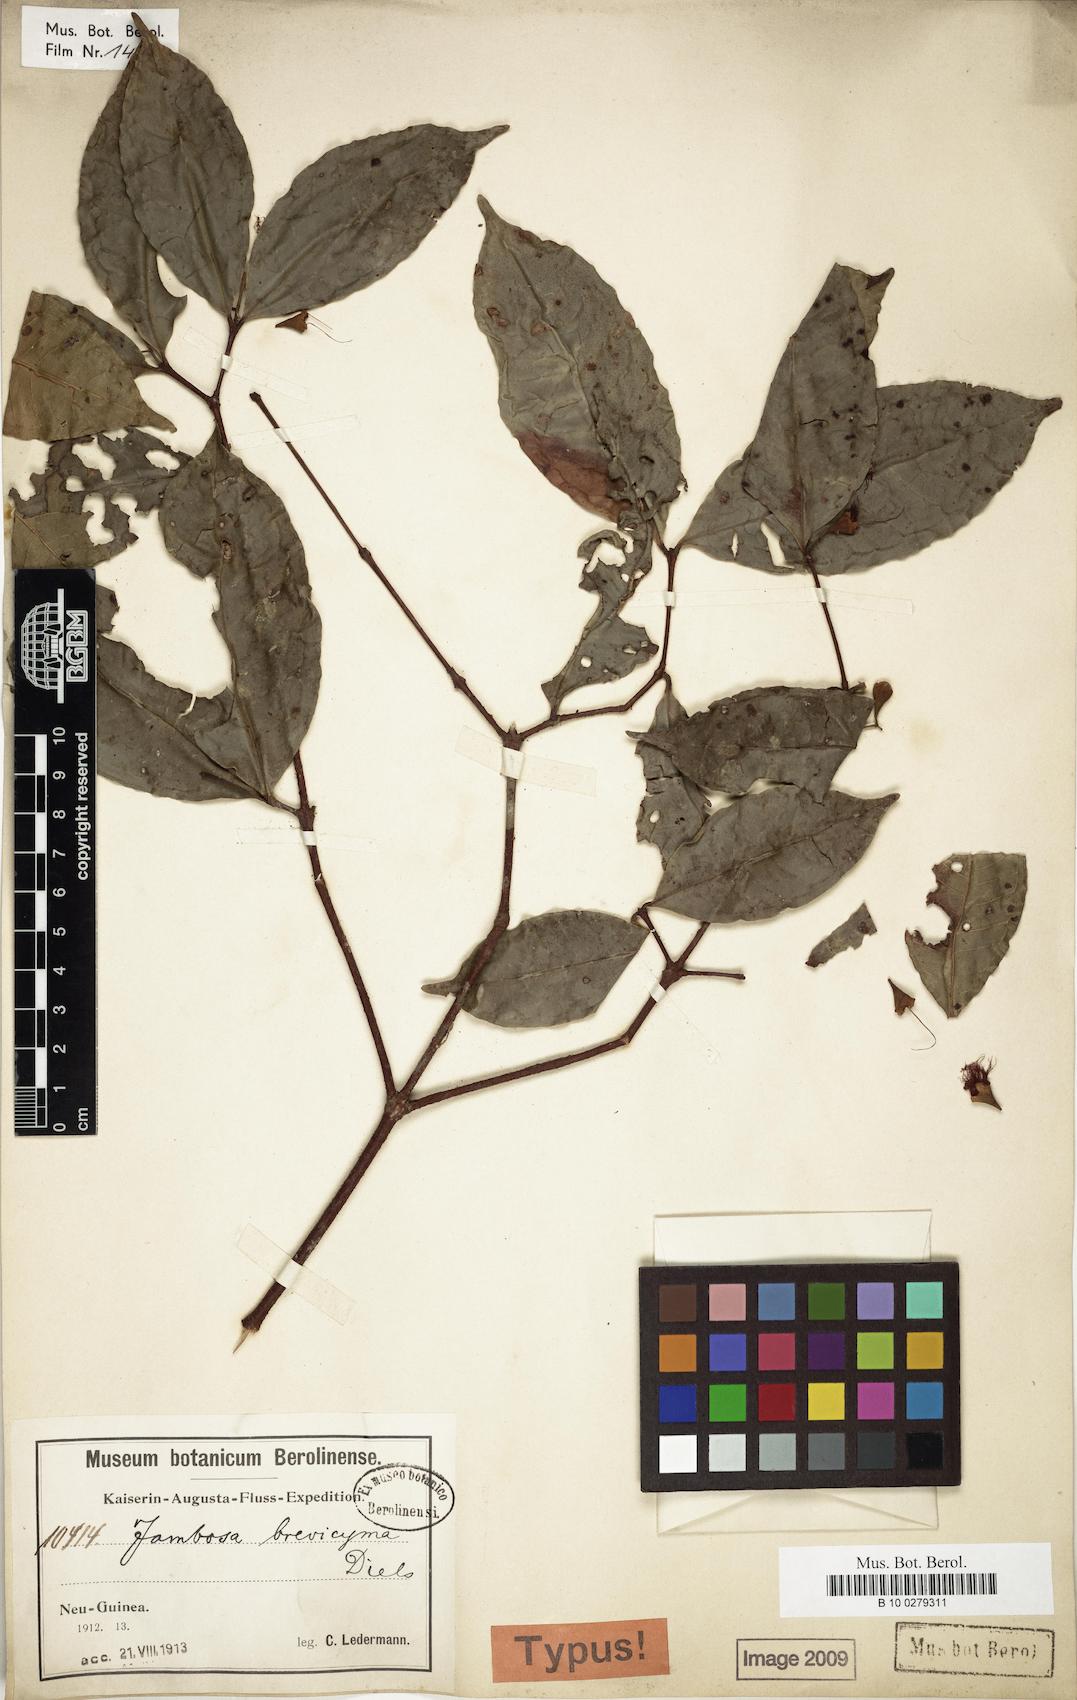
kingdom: Plantae
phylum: Tracheophyta
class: Magnoliopsida
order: Myrtales
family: Myrtaceae
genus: Syzygium
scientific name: Syzygium brevicymum
